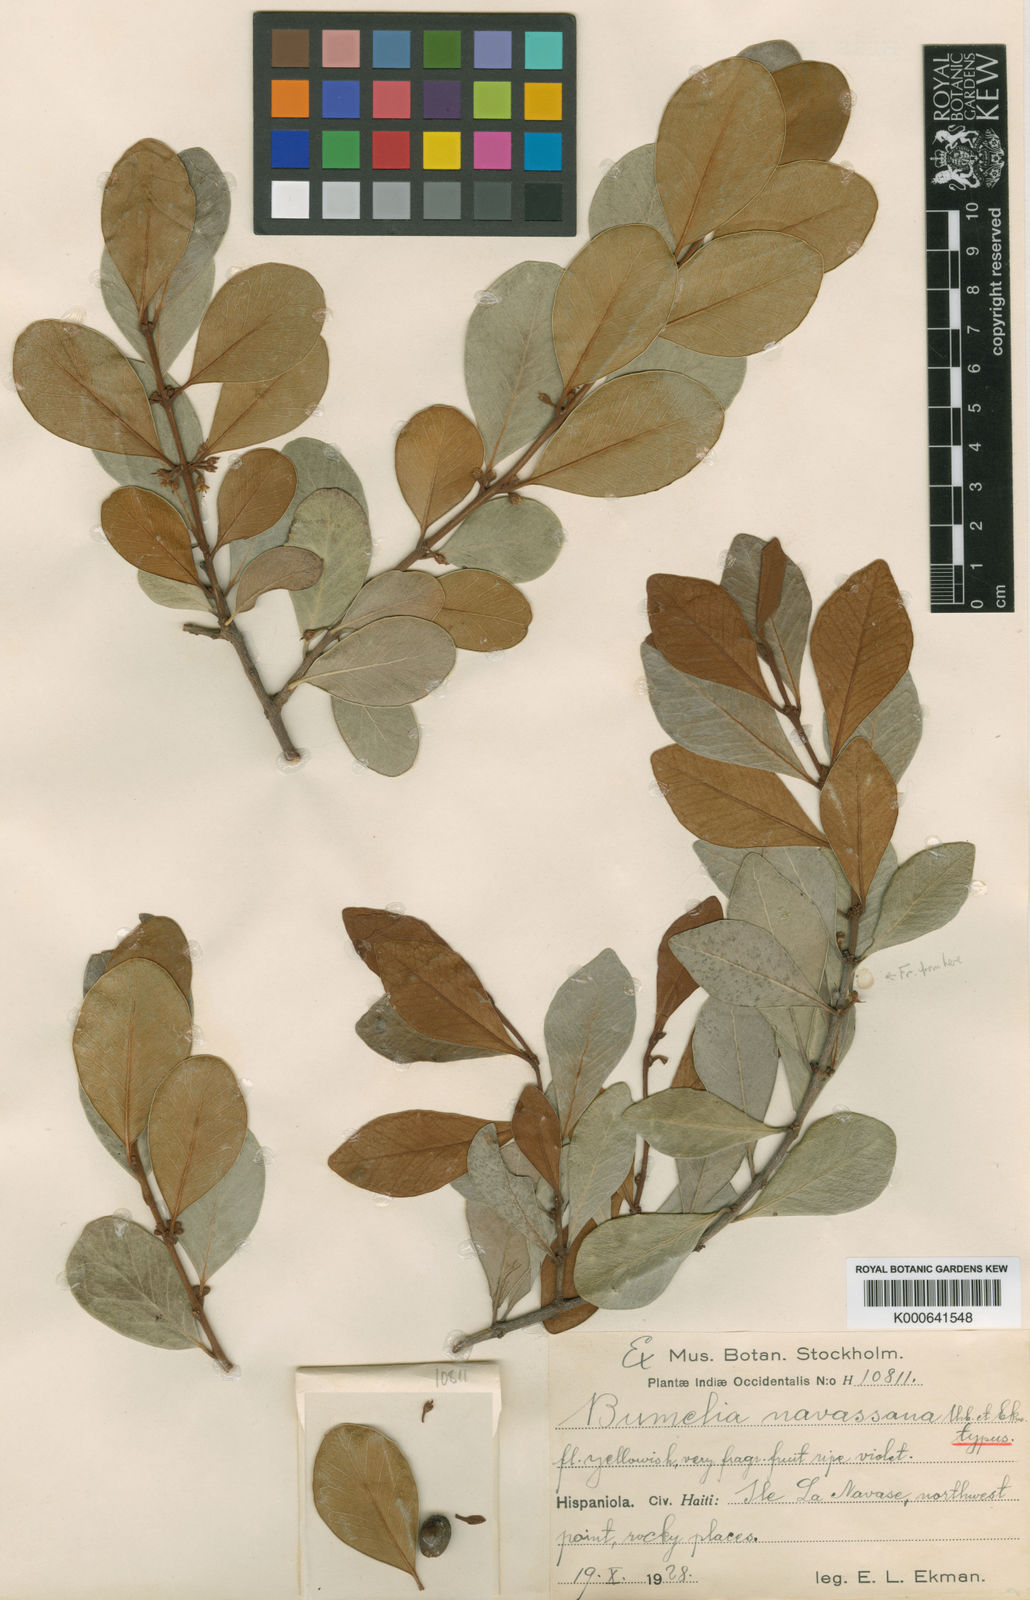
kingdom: Plantae
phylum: Tracheophyta
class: Magnoliopsida
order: Ericales
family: Sapotaceae
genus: Sideroxylon
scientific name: Sideroxylon americanum
